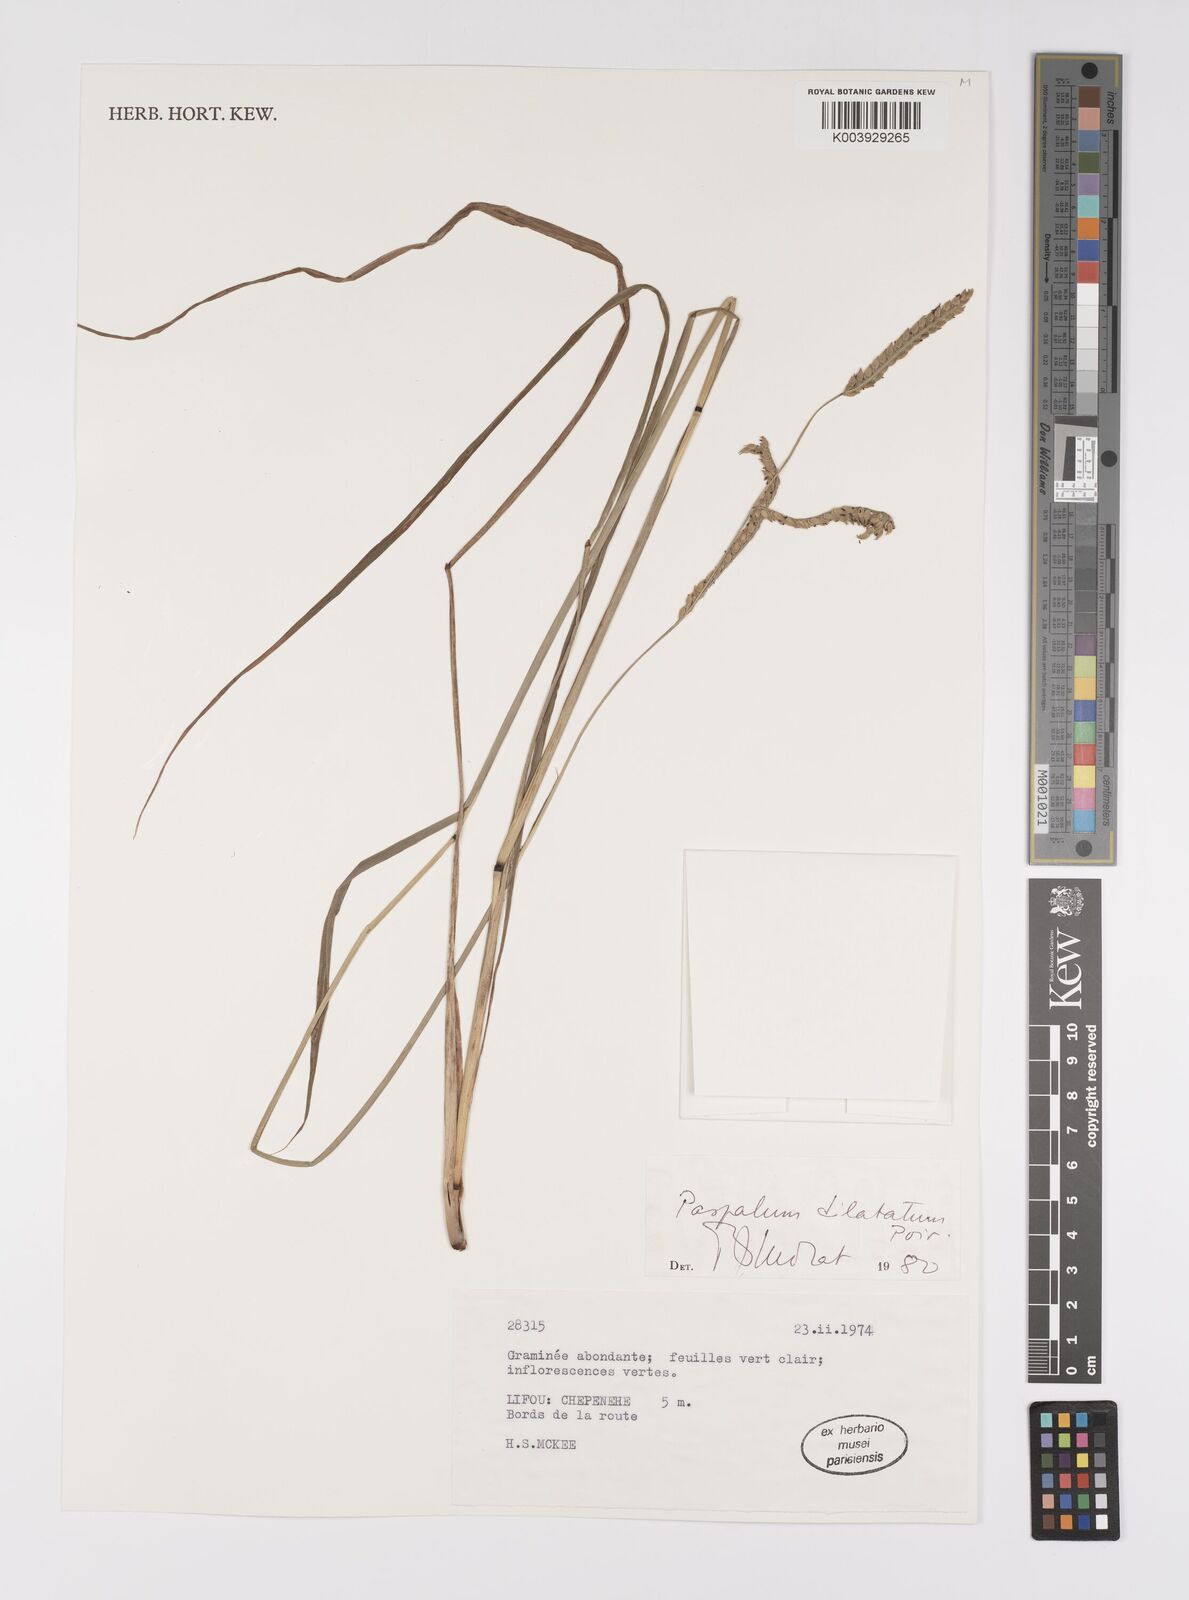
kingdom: Plantae
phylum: Tracheophyta
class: Liliopsida
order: Poales
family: Poaceae
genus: Paspalum
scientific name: Paspalum dilatatum
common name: Dallisgrass
